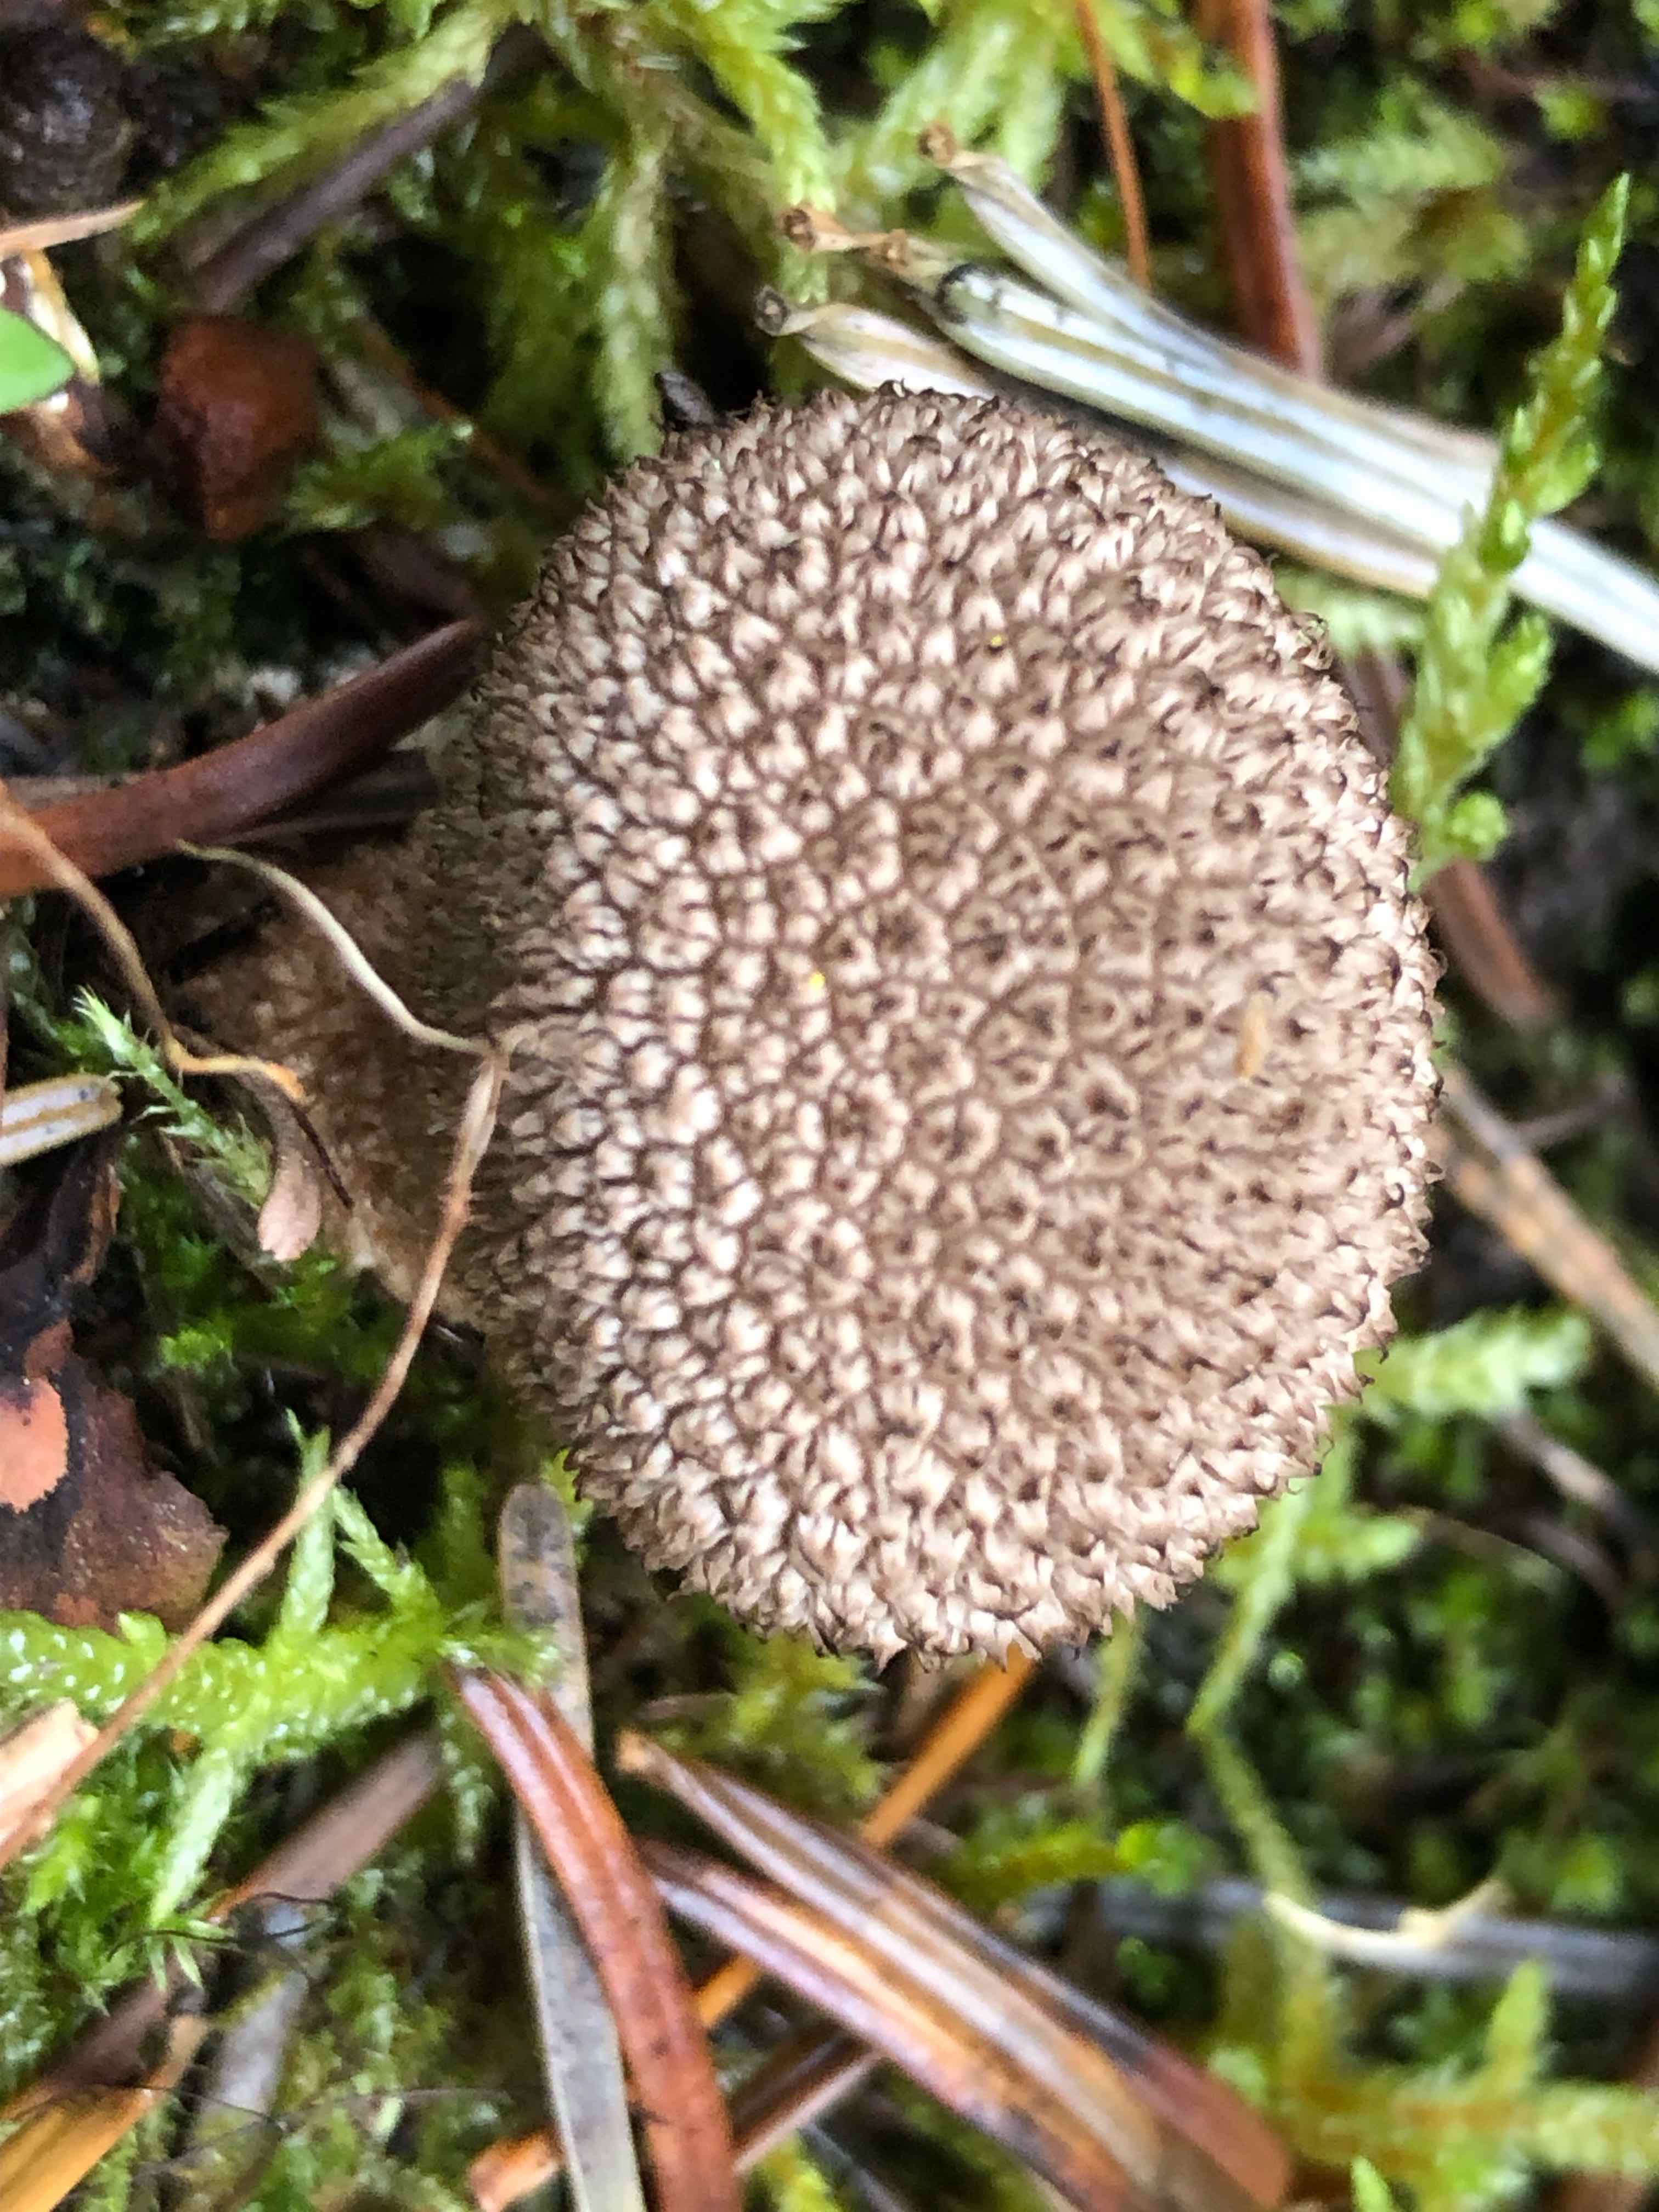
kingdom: Fungi
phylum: Basidiomycota
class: Agaricomycetes
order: Agaricales
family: Lycoperdaceae
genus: Lycoperdon
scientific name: Lycoperdon nigrescens
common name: sortagtig støvbold
